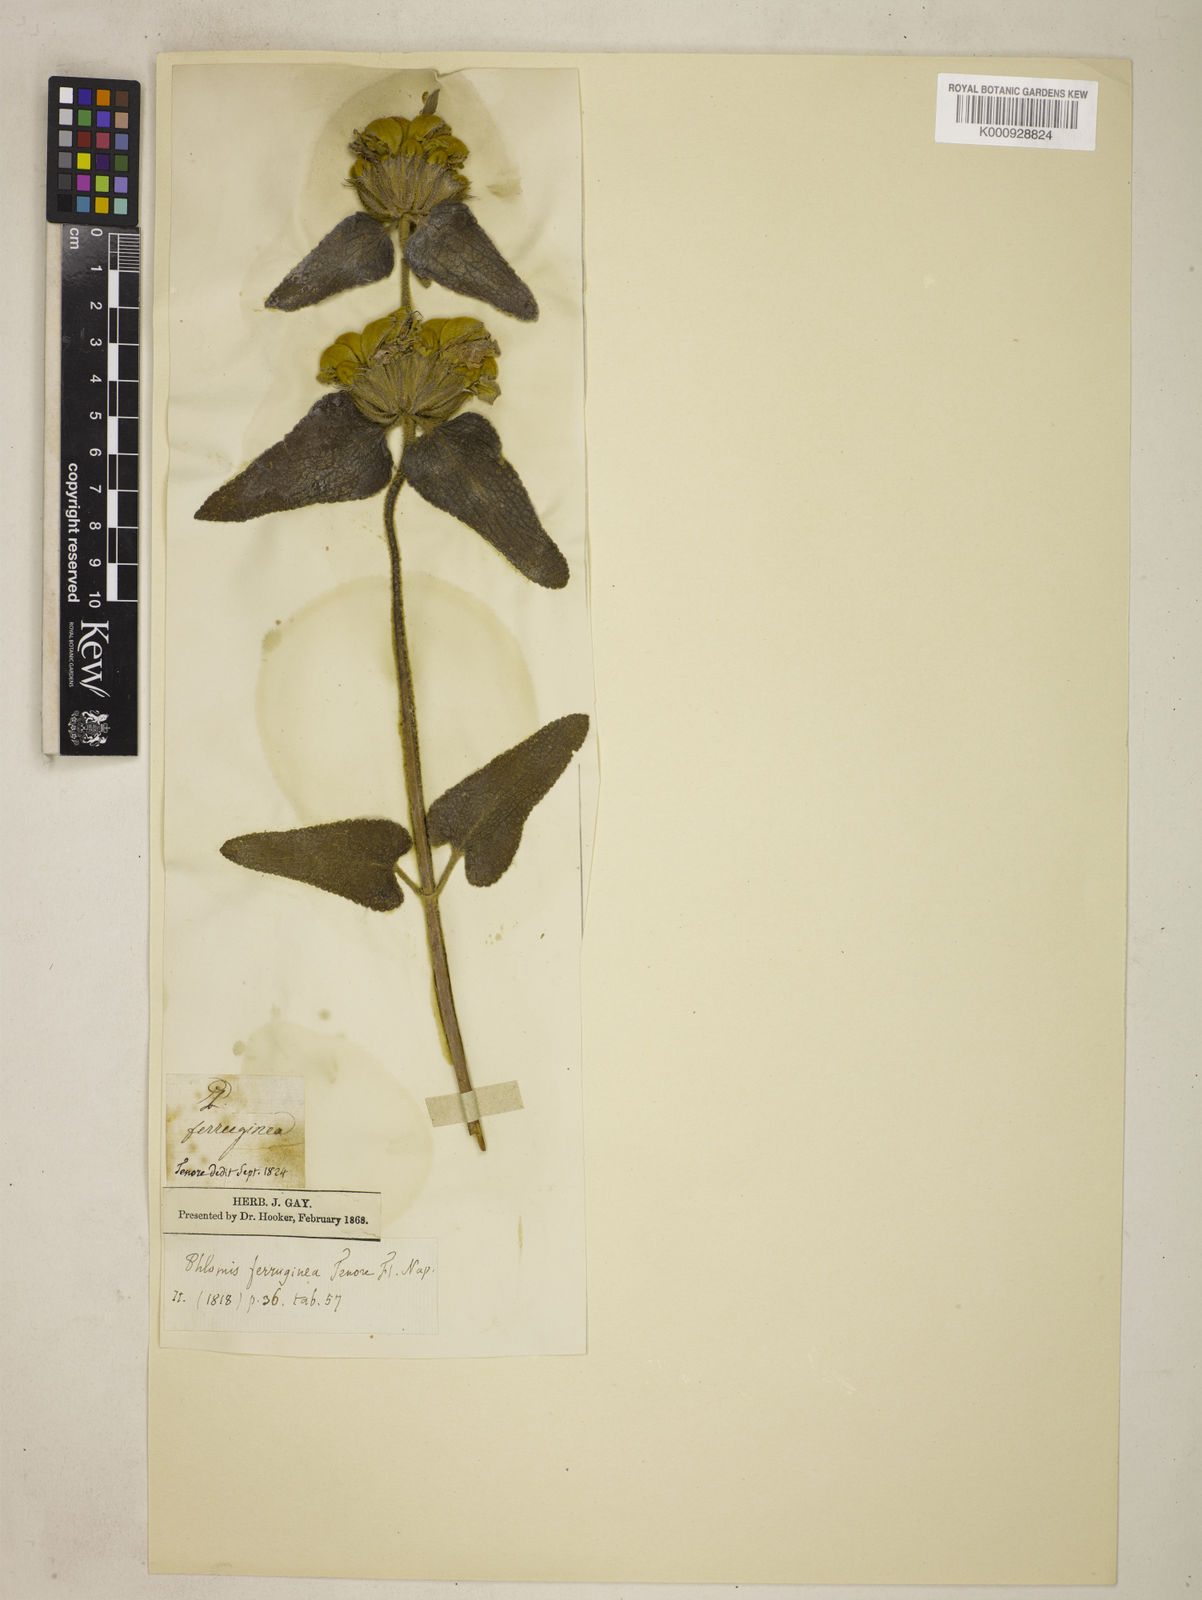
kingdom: Plantae
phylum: Tracheophyta
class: Magnoliopsida
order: Lamiales
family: Lamiaceae
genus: Phlomis
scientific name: Phlomis tenorei
